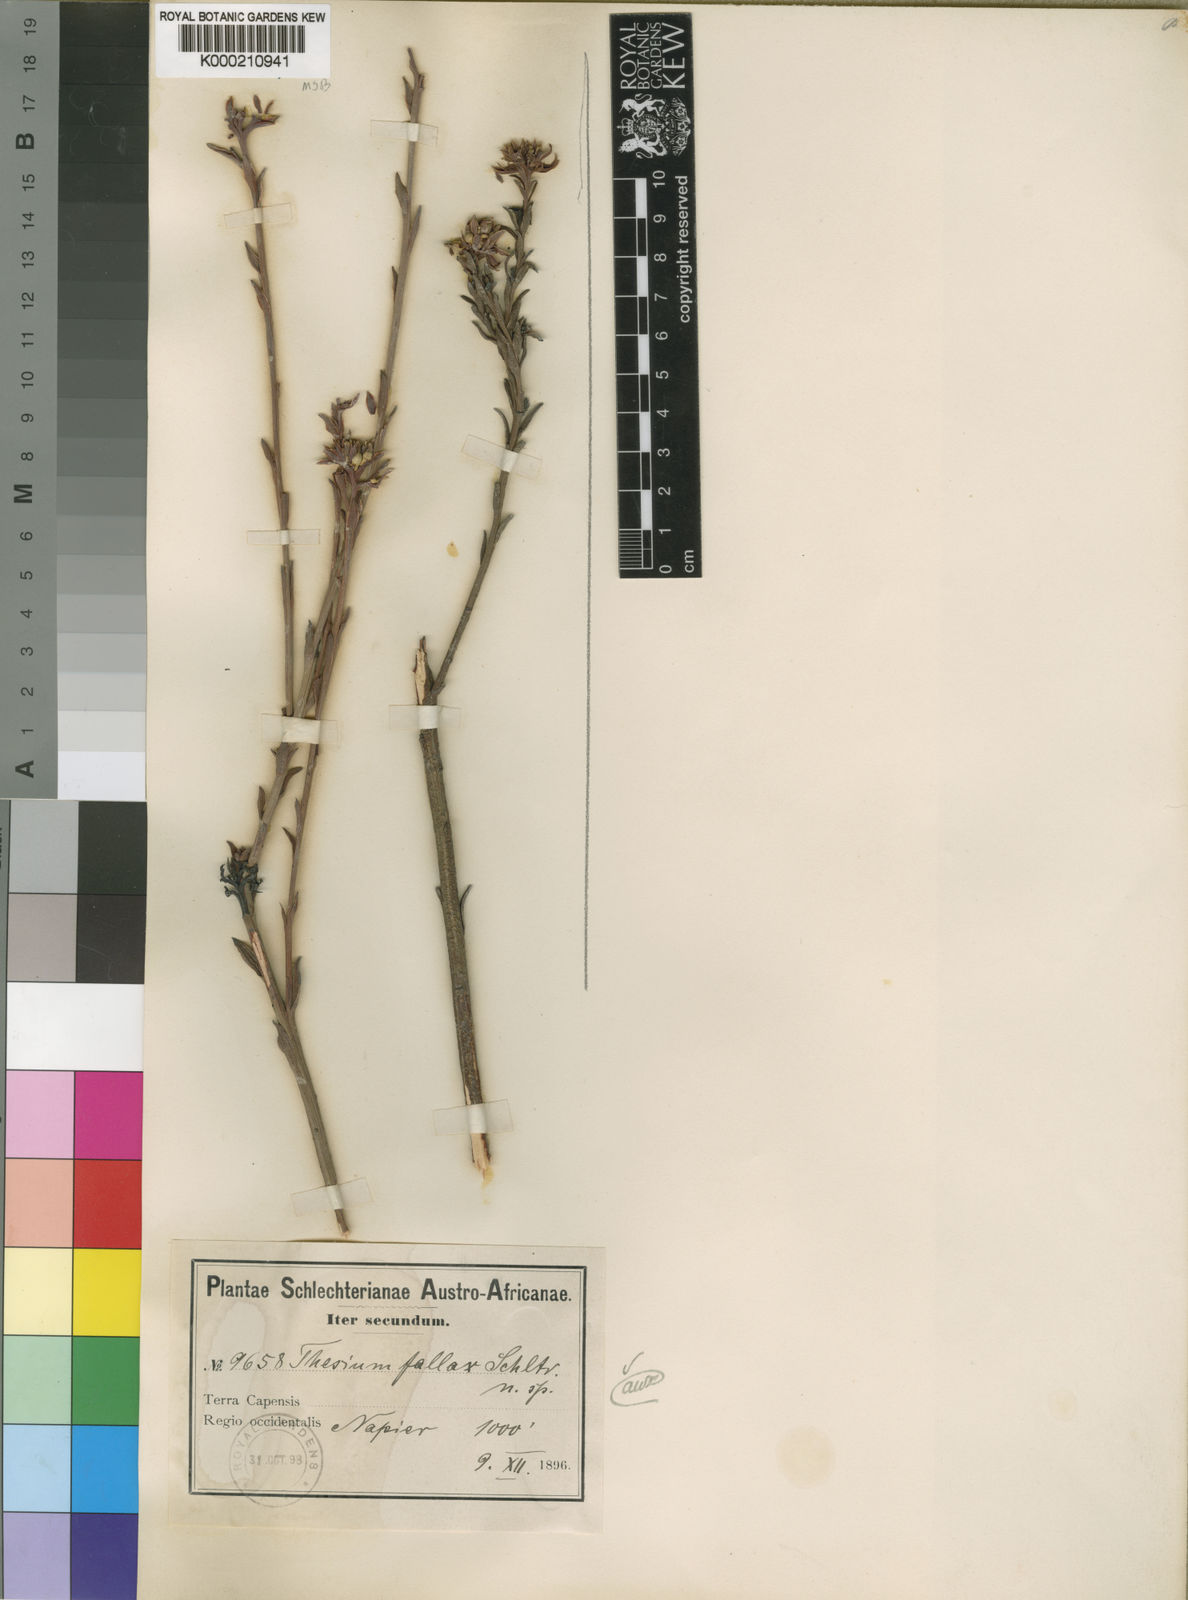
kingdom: Plantae
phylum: Tracheophyta
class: Magnoliopsida
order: Santalales
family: Thesiaceae
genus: Thesium
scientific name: Thesium fallax
